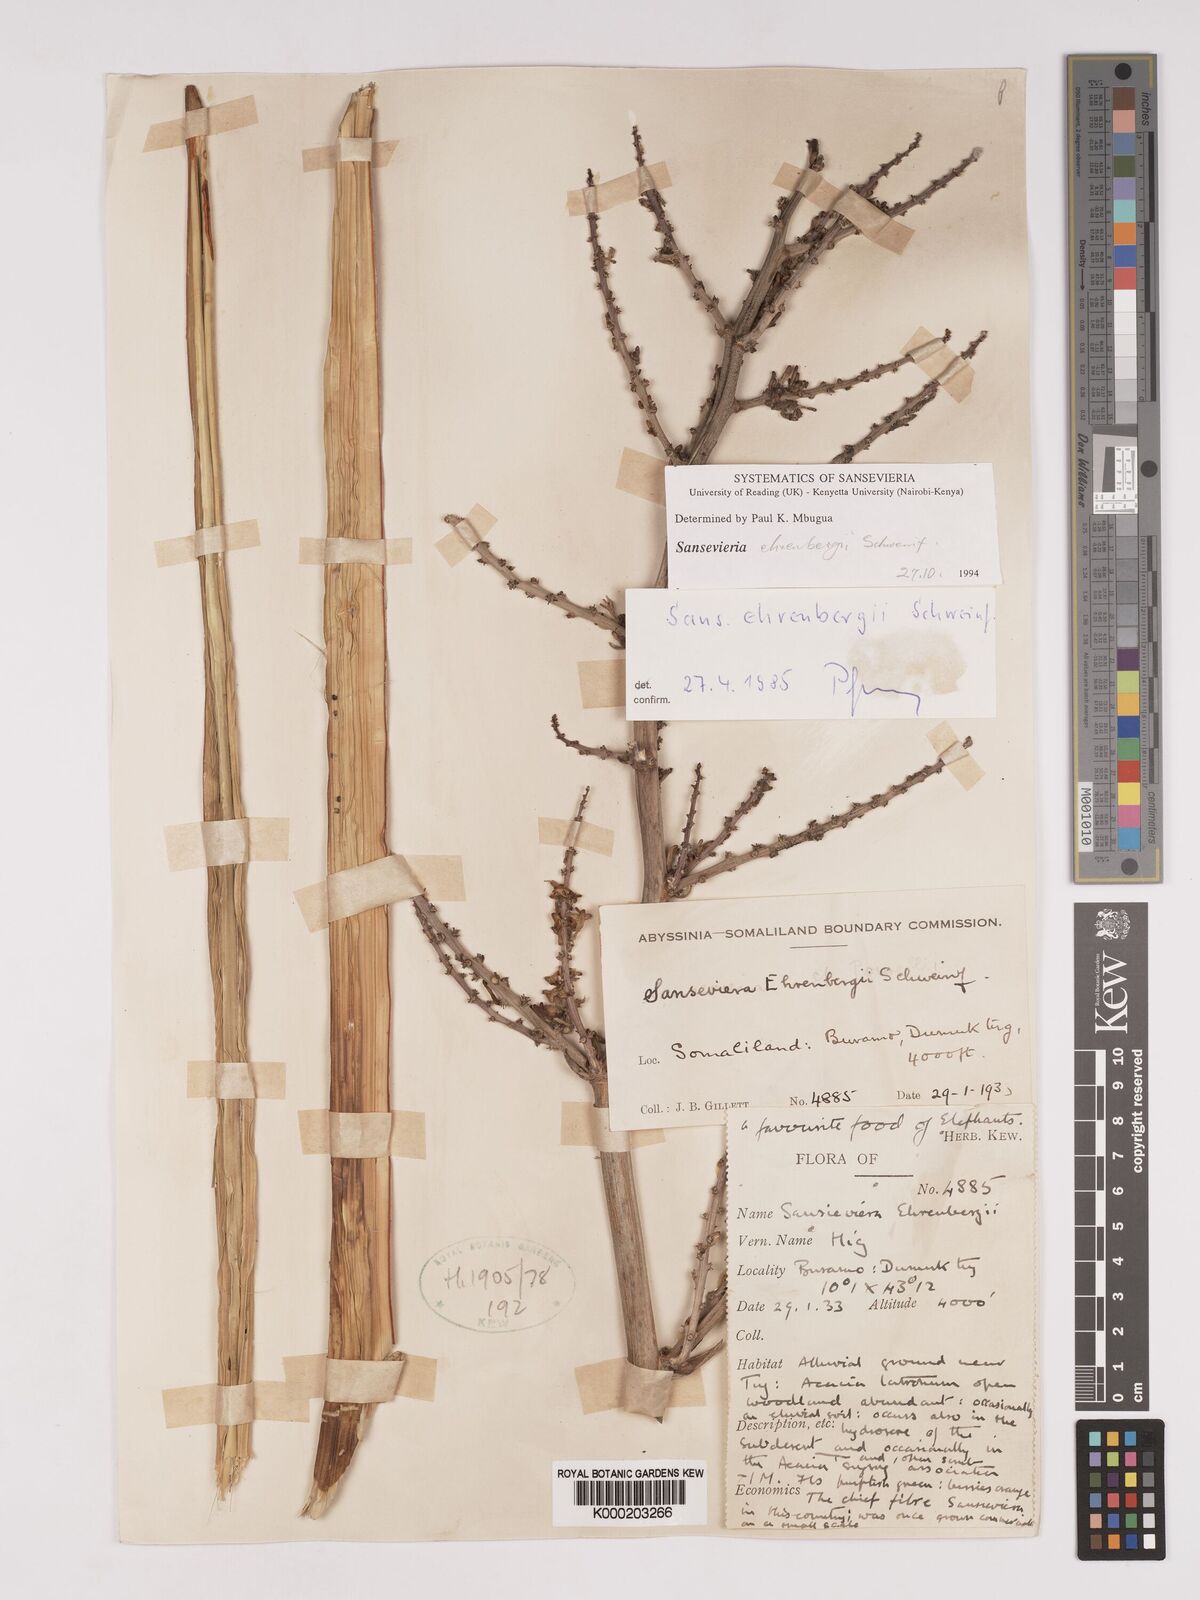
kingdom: Plantae
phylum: Tracheophyta
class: Liliopsida
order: Asparagales
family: Asparagaceae
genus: Dracaena
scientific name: Dracaena hanningtonii
